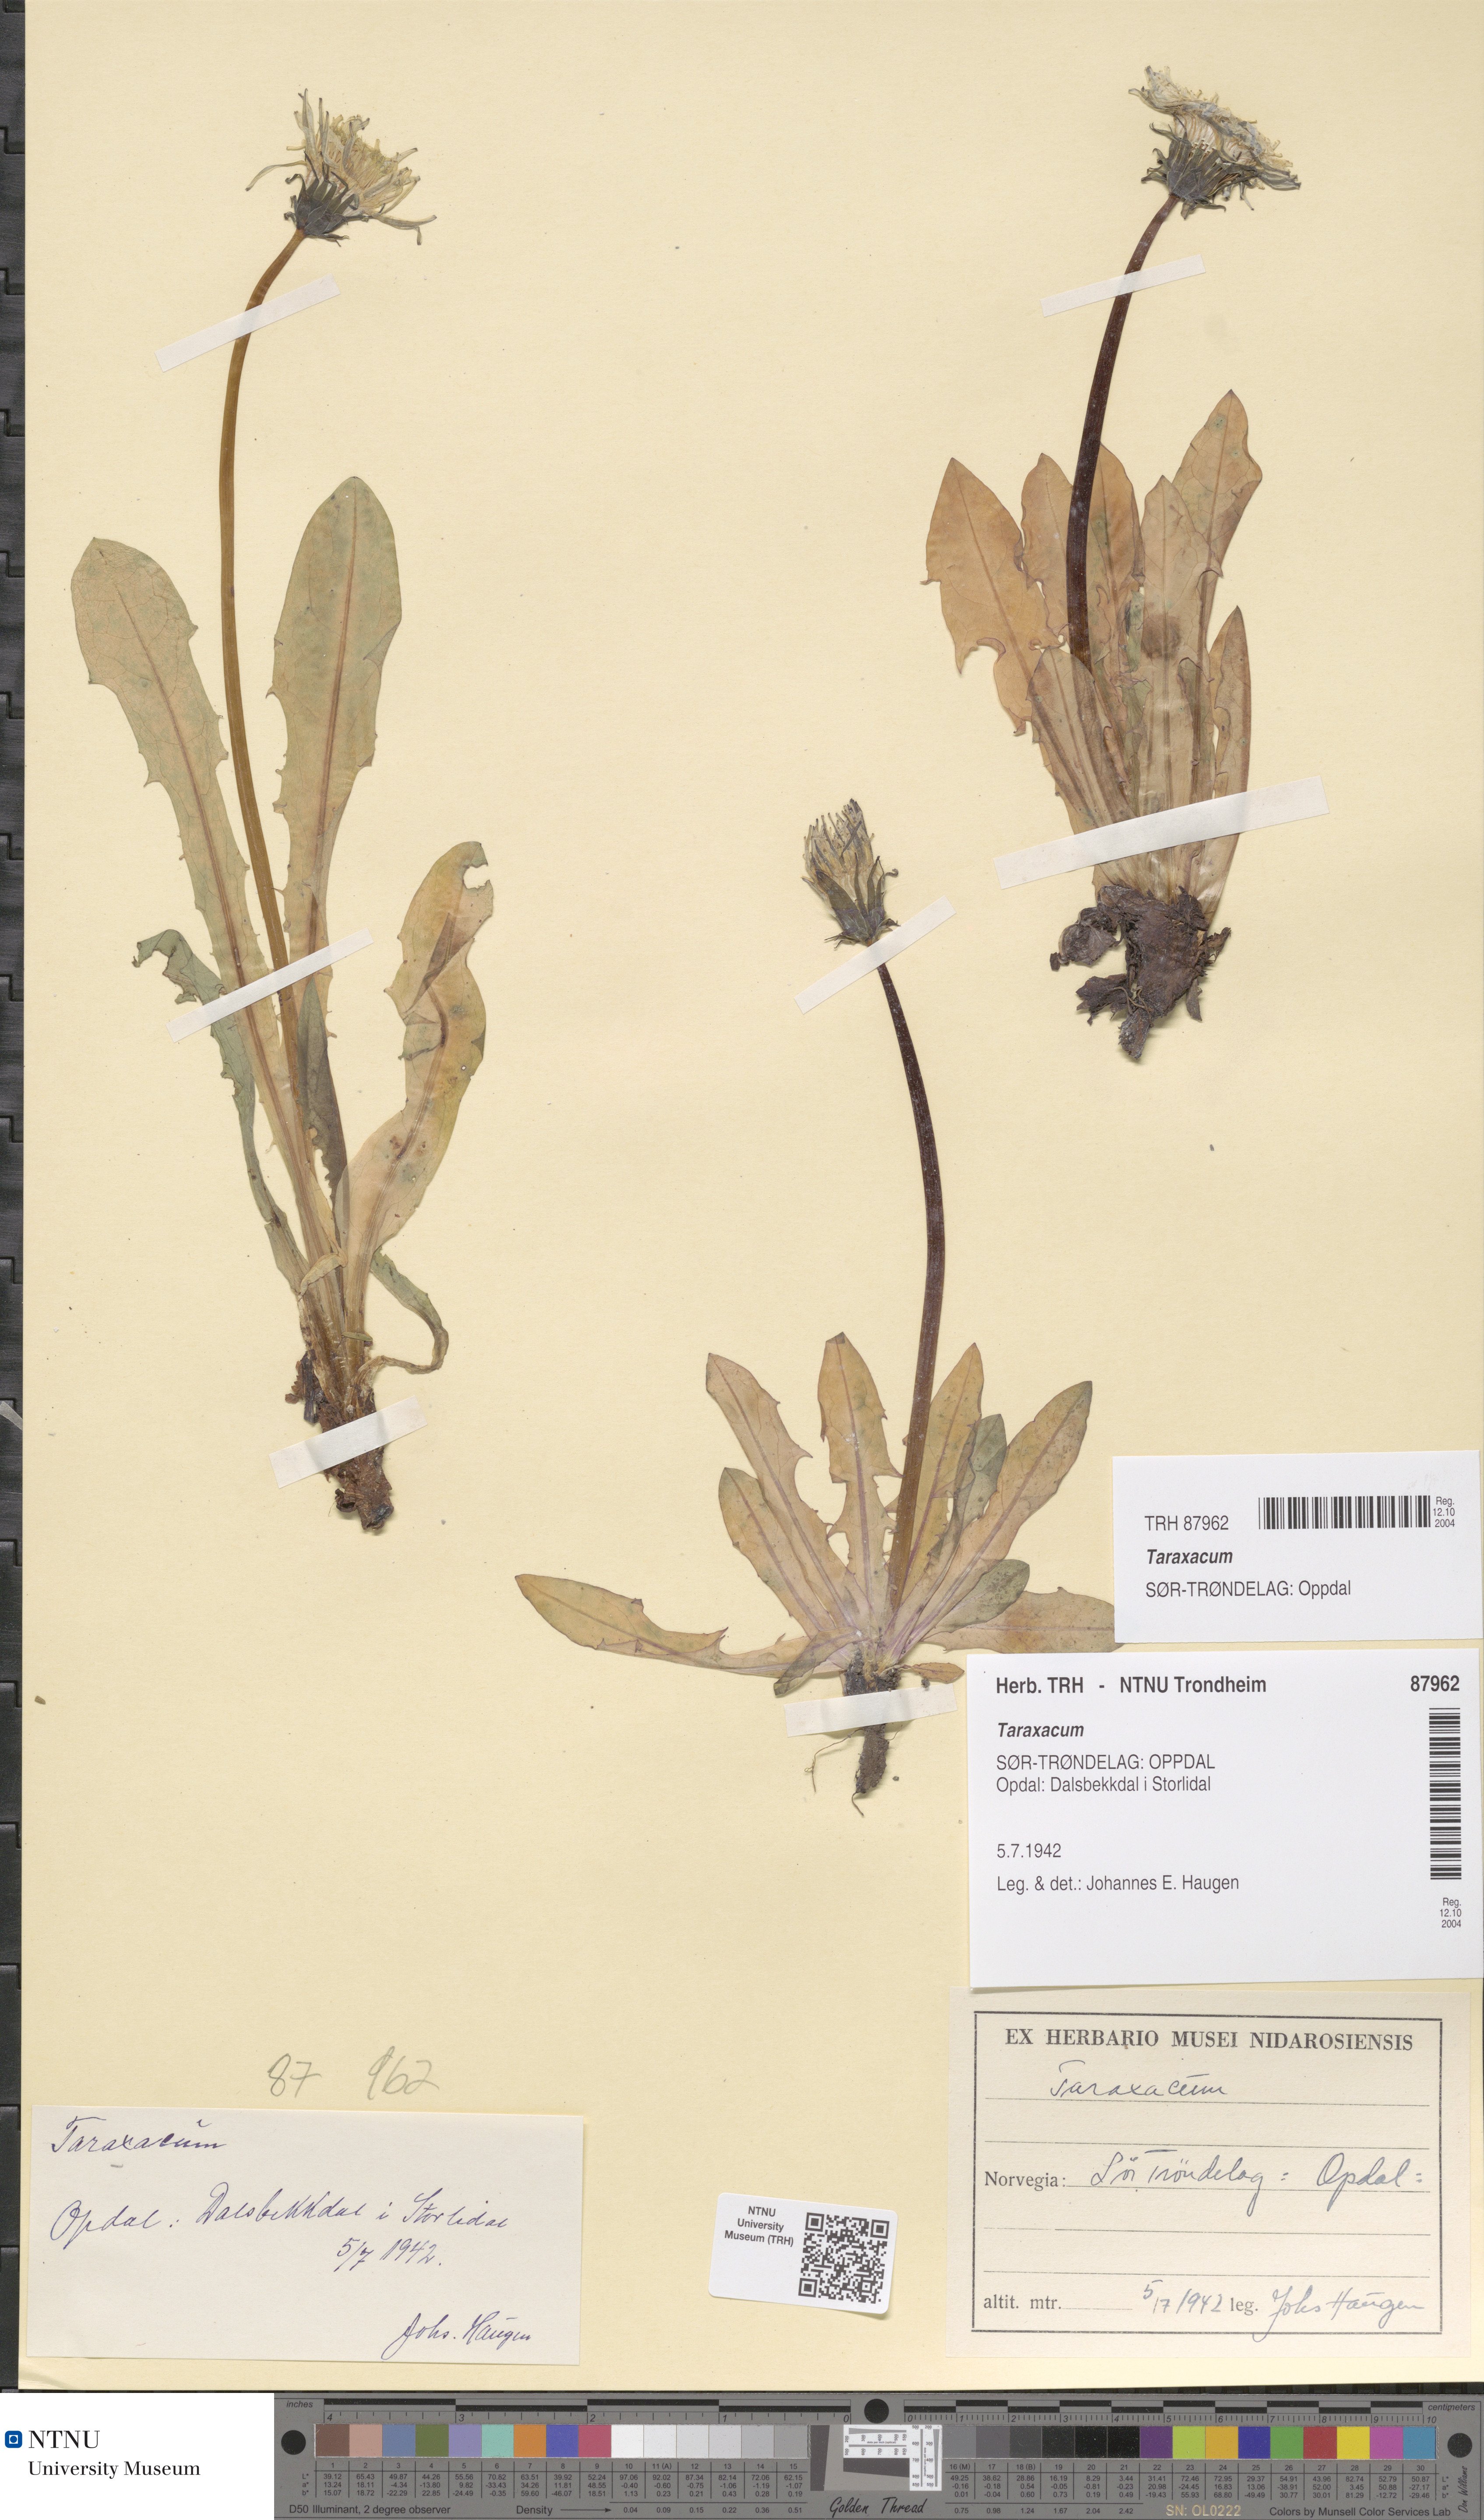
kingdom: Plantae
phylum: Tracheophyta
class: Magnoliopsida
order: Asterales
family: Asteraceae
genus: Taraxacum
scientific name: Taraxacum
